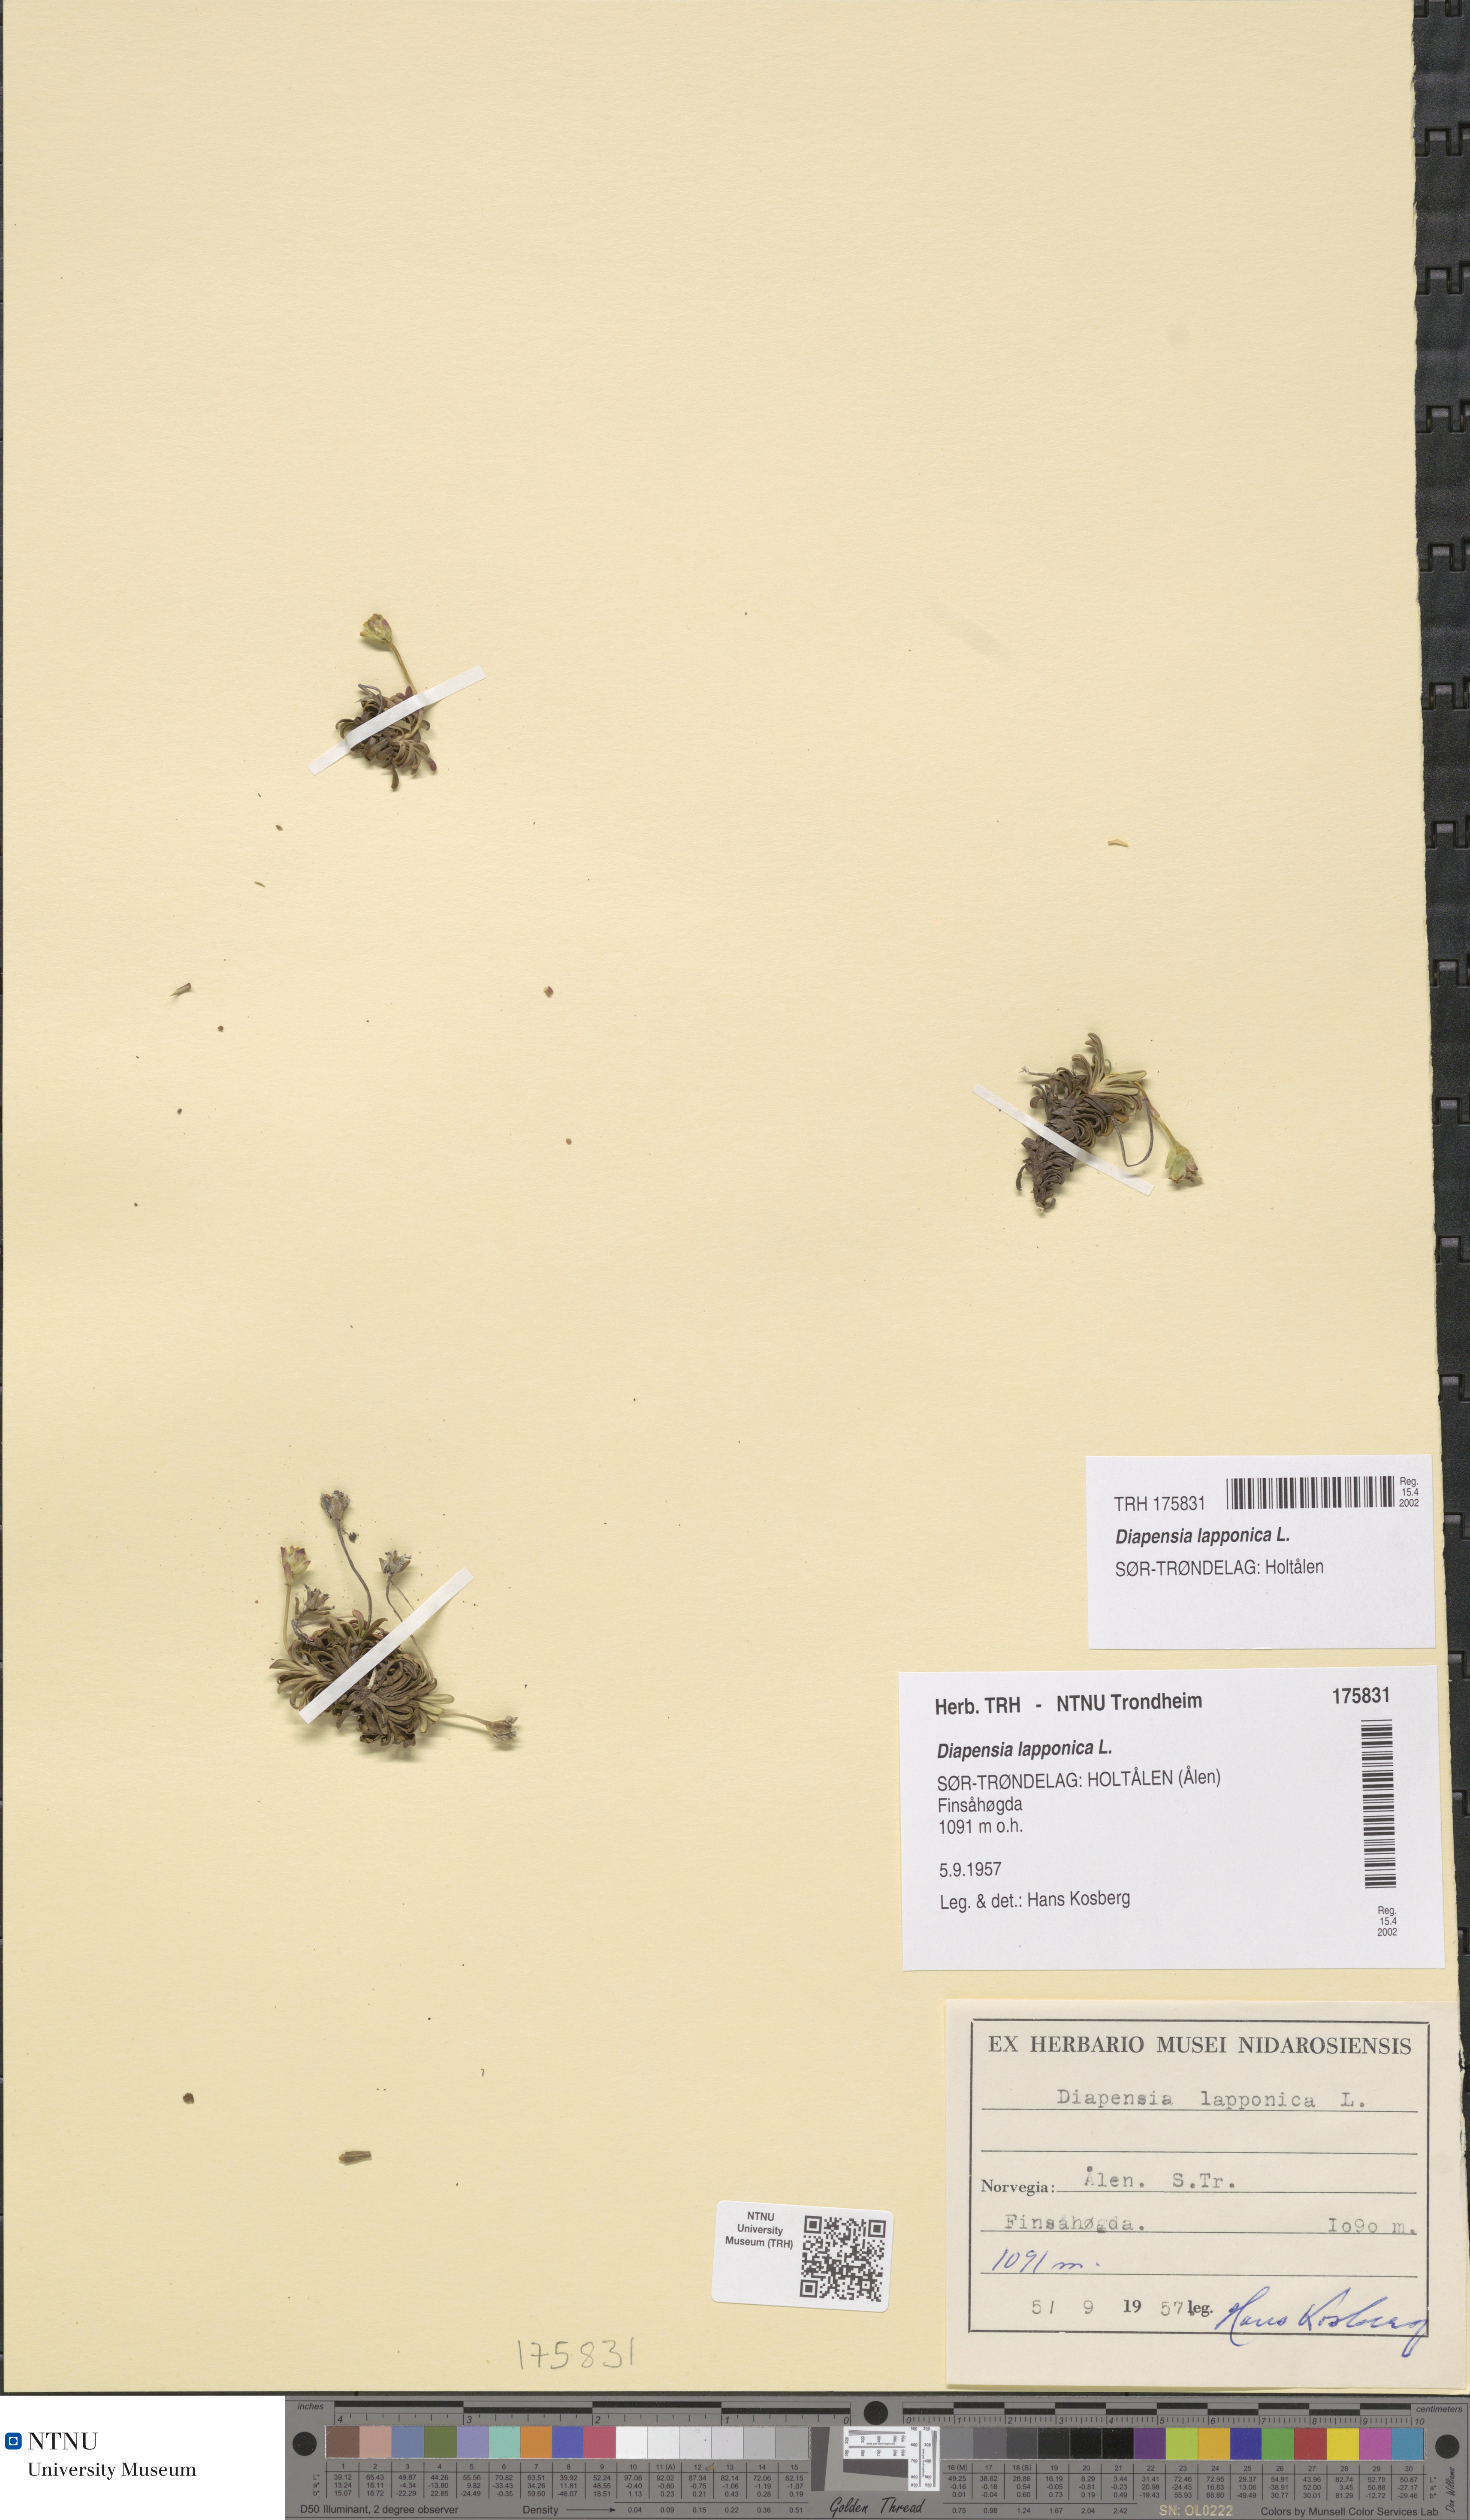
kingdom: Plantae
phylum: Tracheophyta
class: Magnoliopsida
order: Ericales
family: Diapensiaceae
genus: Diapensia
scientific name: Diapensia lapponica
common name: Diapensia
